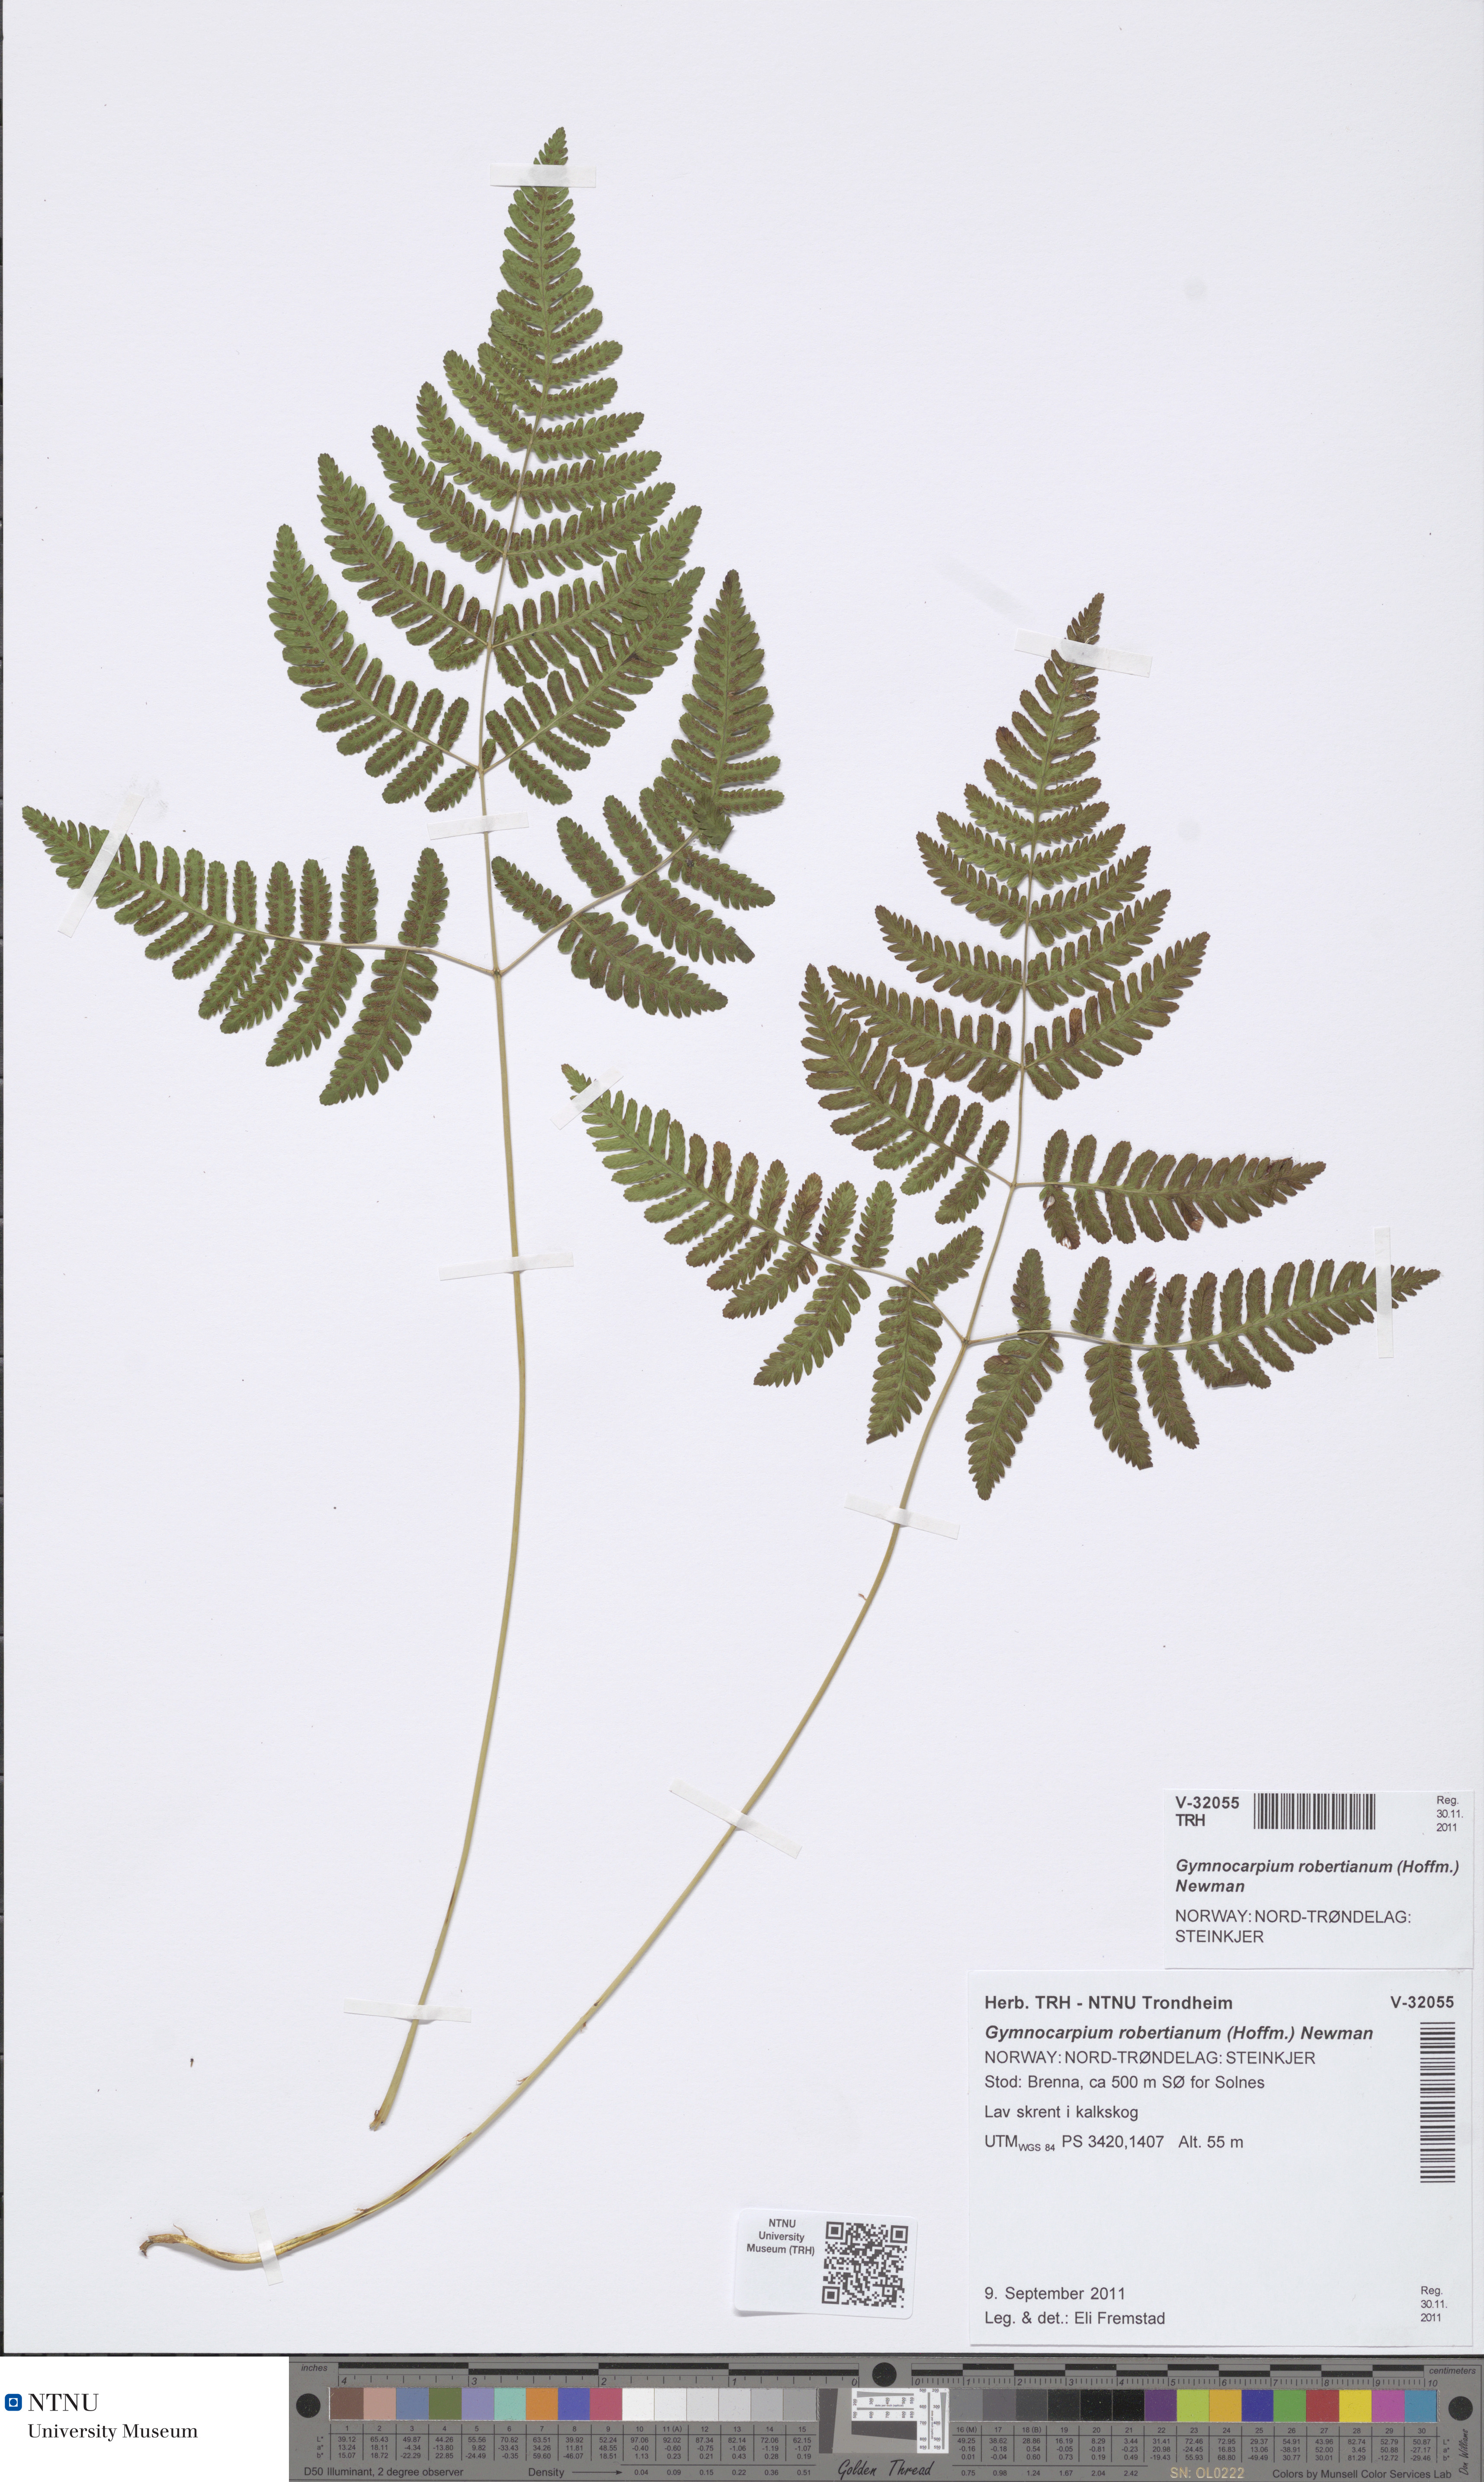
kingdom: Plantae
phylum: Tracheophyta
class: Polypodiopsida
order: Polypodiales
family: Cystopteridaceae
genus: Gymnocarpium
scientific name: Gymnocarpium robertianum
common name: Limestone fern
